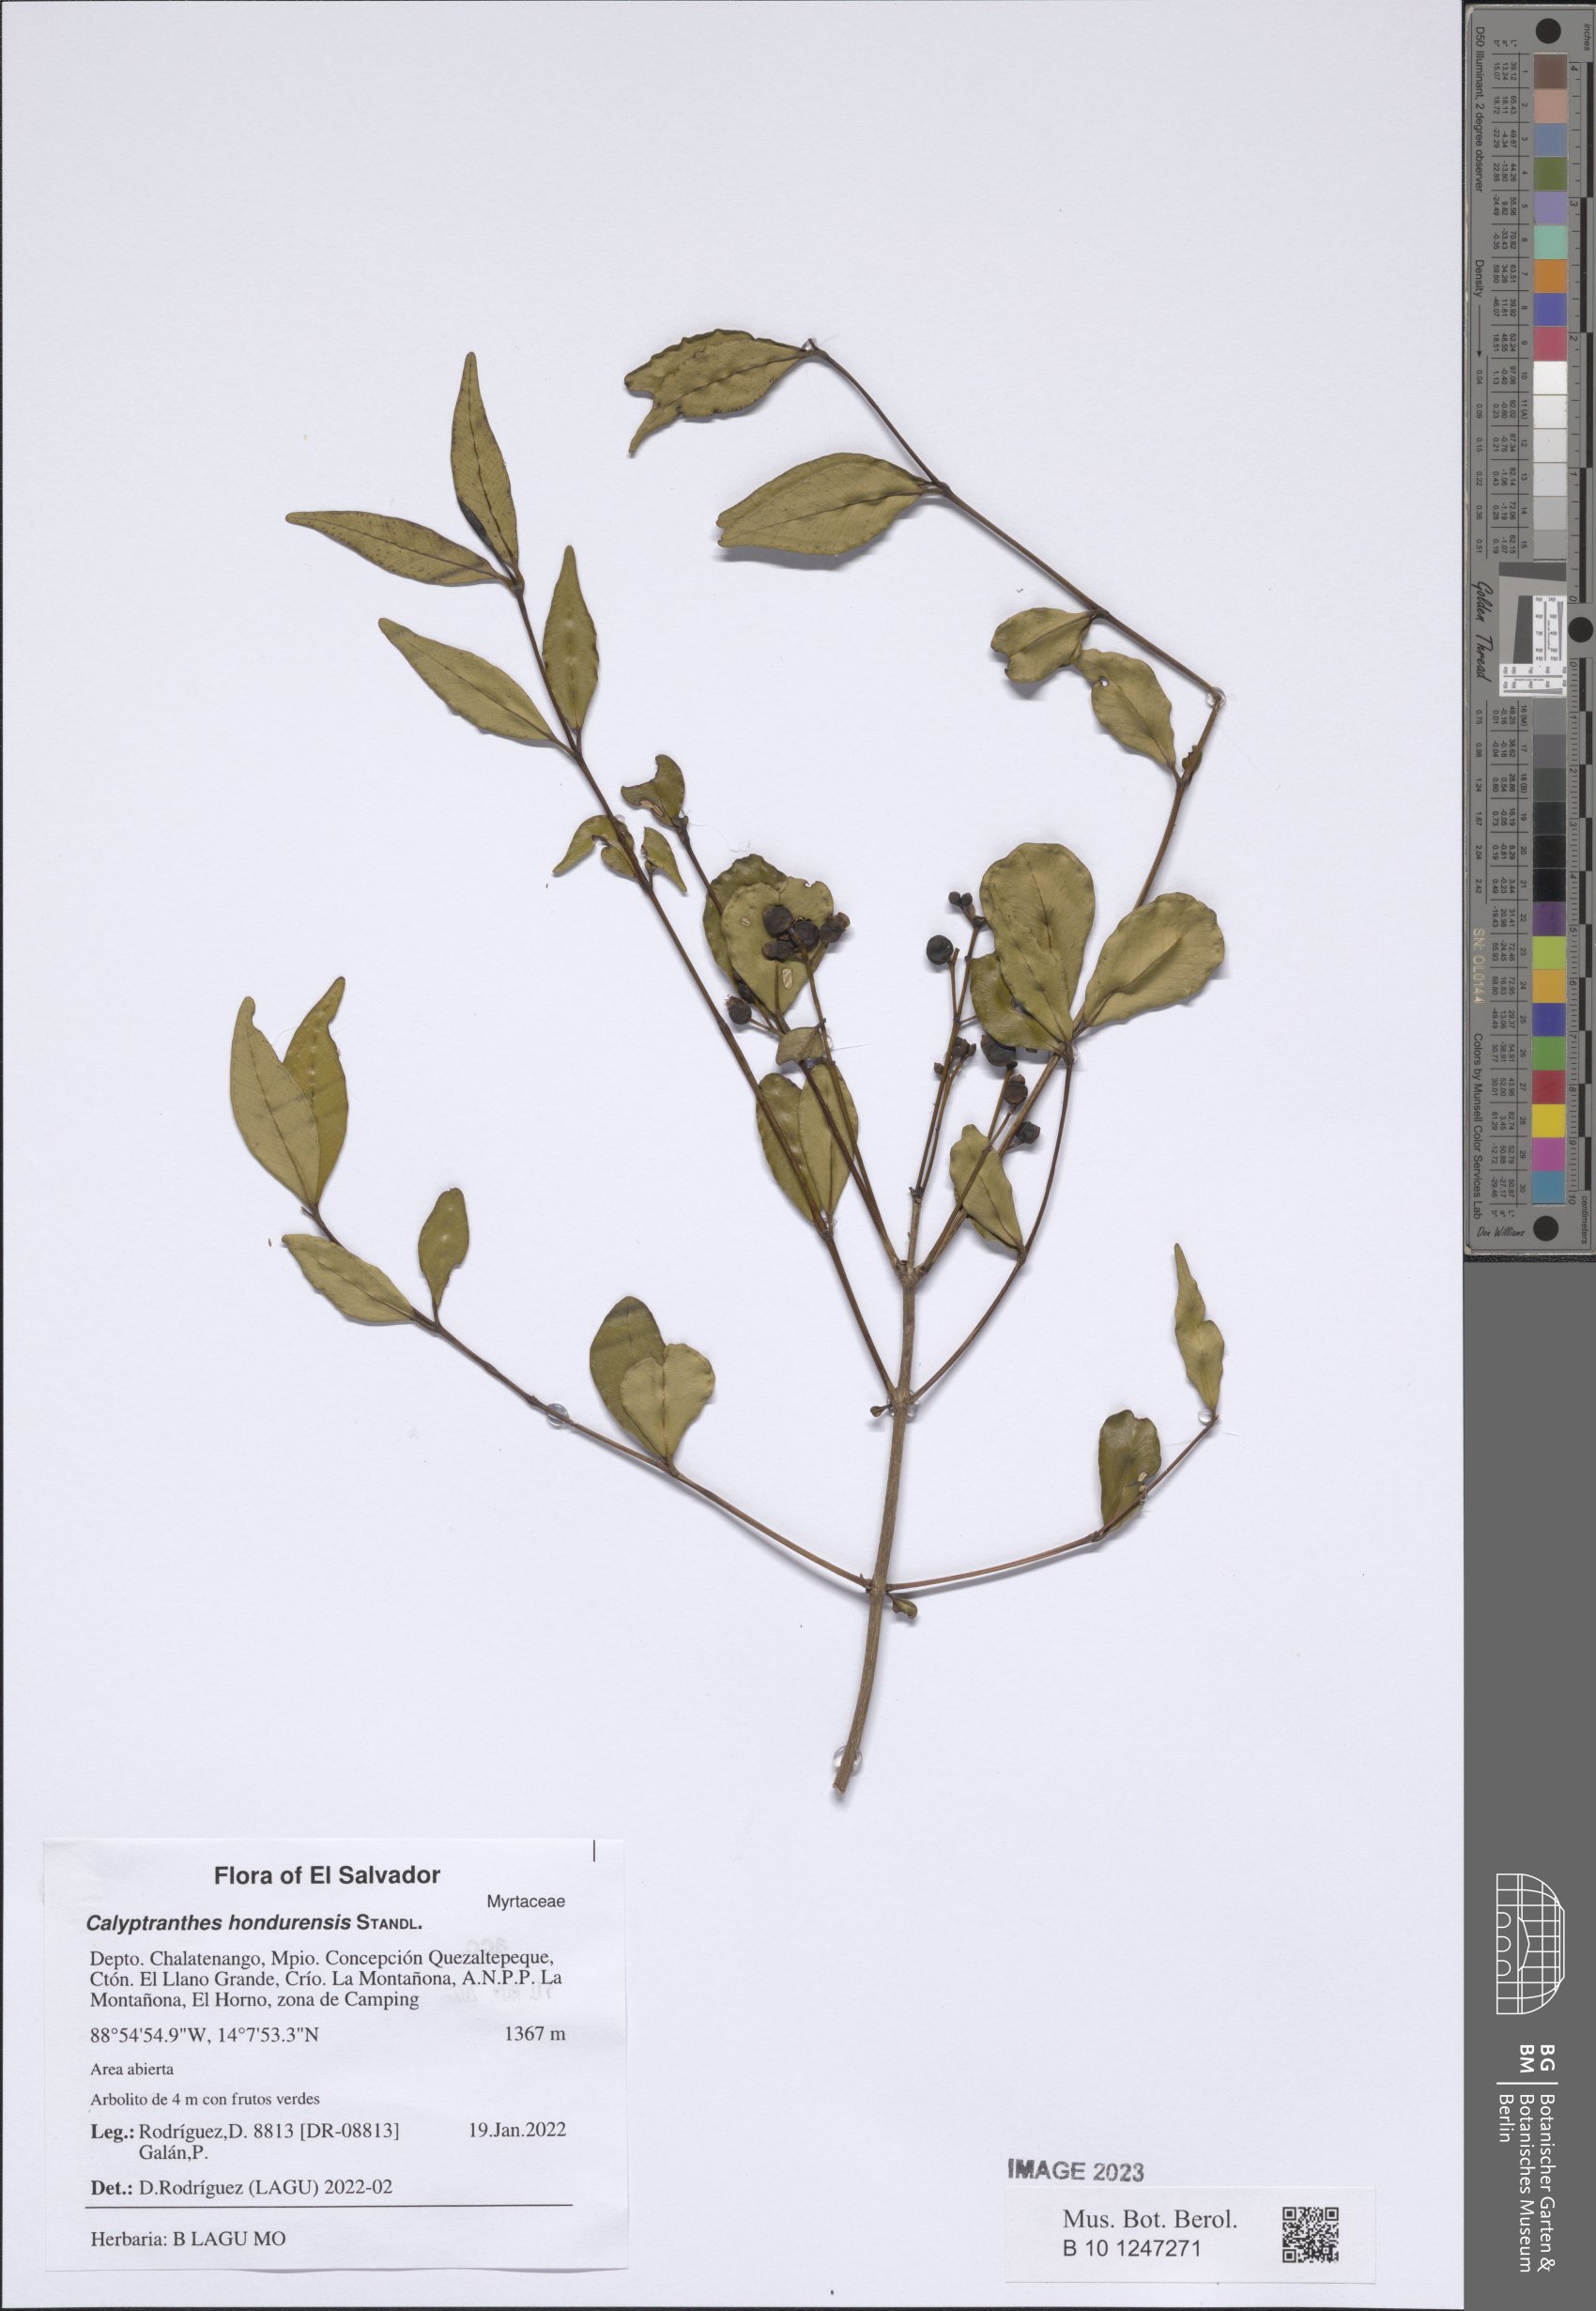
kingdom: Plantae
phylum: Tracheophyta
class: Magnoliopsida
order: Myrtales
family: Myrtaceae
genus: Myrcia
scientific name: Myrcia hondurensis
